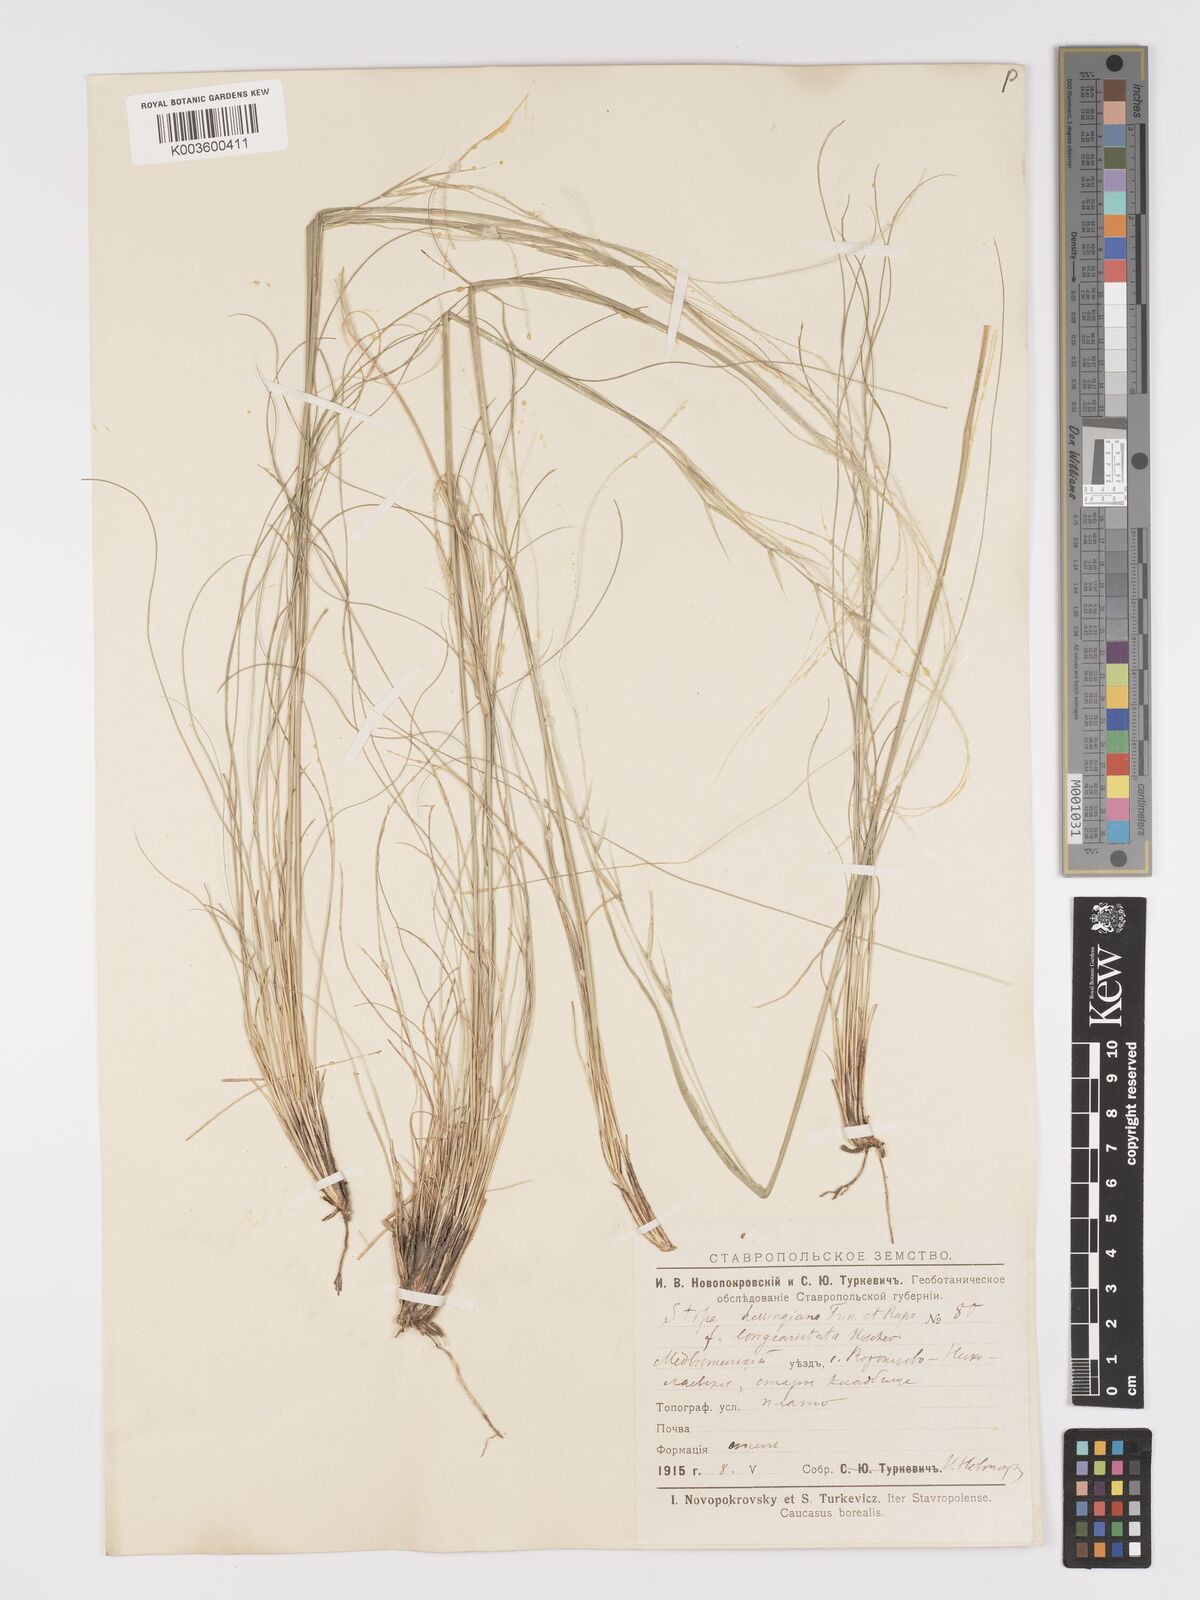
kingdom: Plantae
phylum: Tracheophyta
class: Liliopsida
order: Poales
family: Poaceae
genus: Stipa
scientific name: Stipa lessingiana
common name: Needle grass
